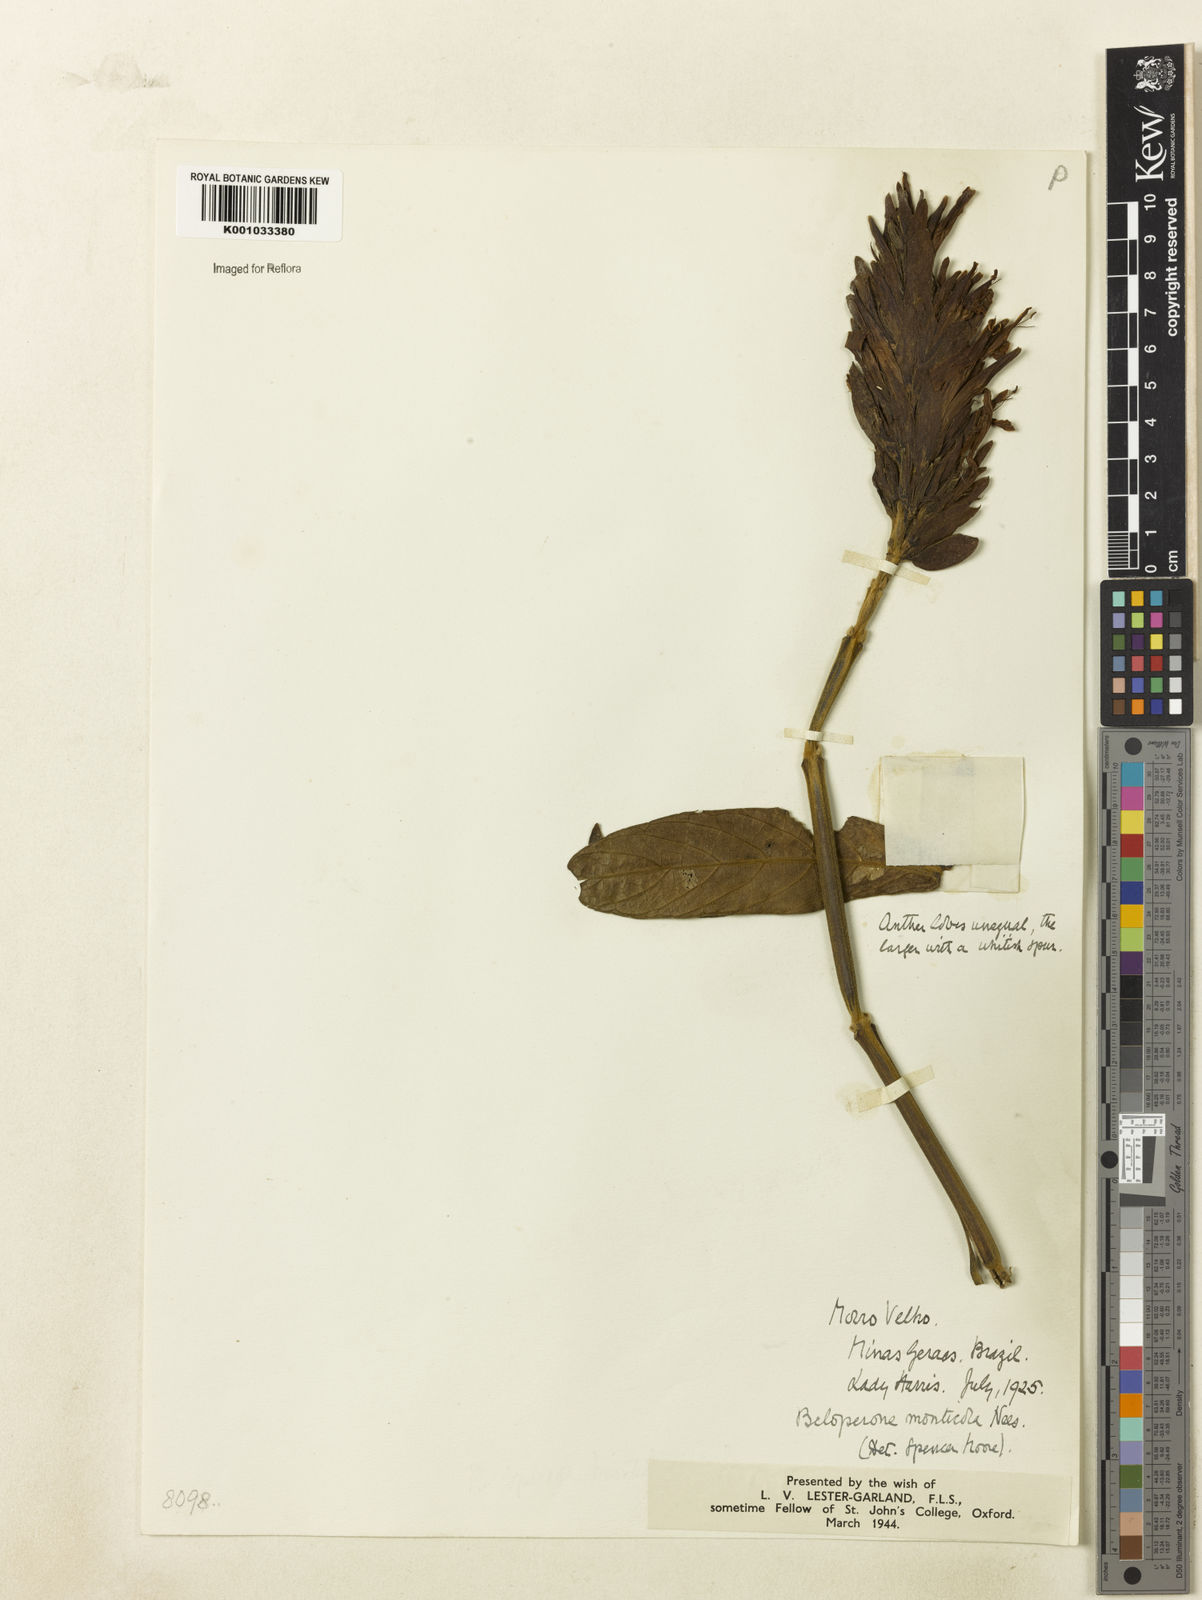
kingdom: Plantae
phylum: Tracheophyta
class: Magnoliopsida
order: Lamiales
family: Acanthaceae
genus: Justicia
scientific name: Justicia monticola
